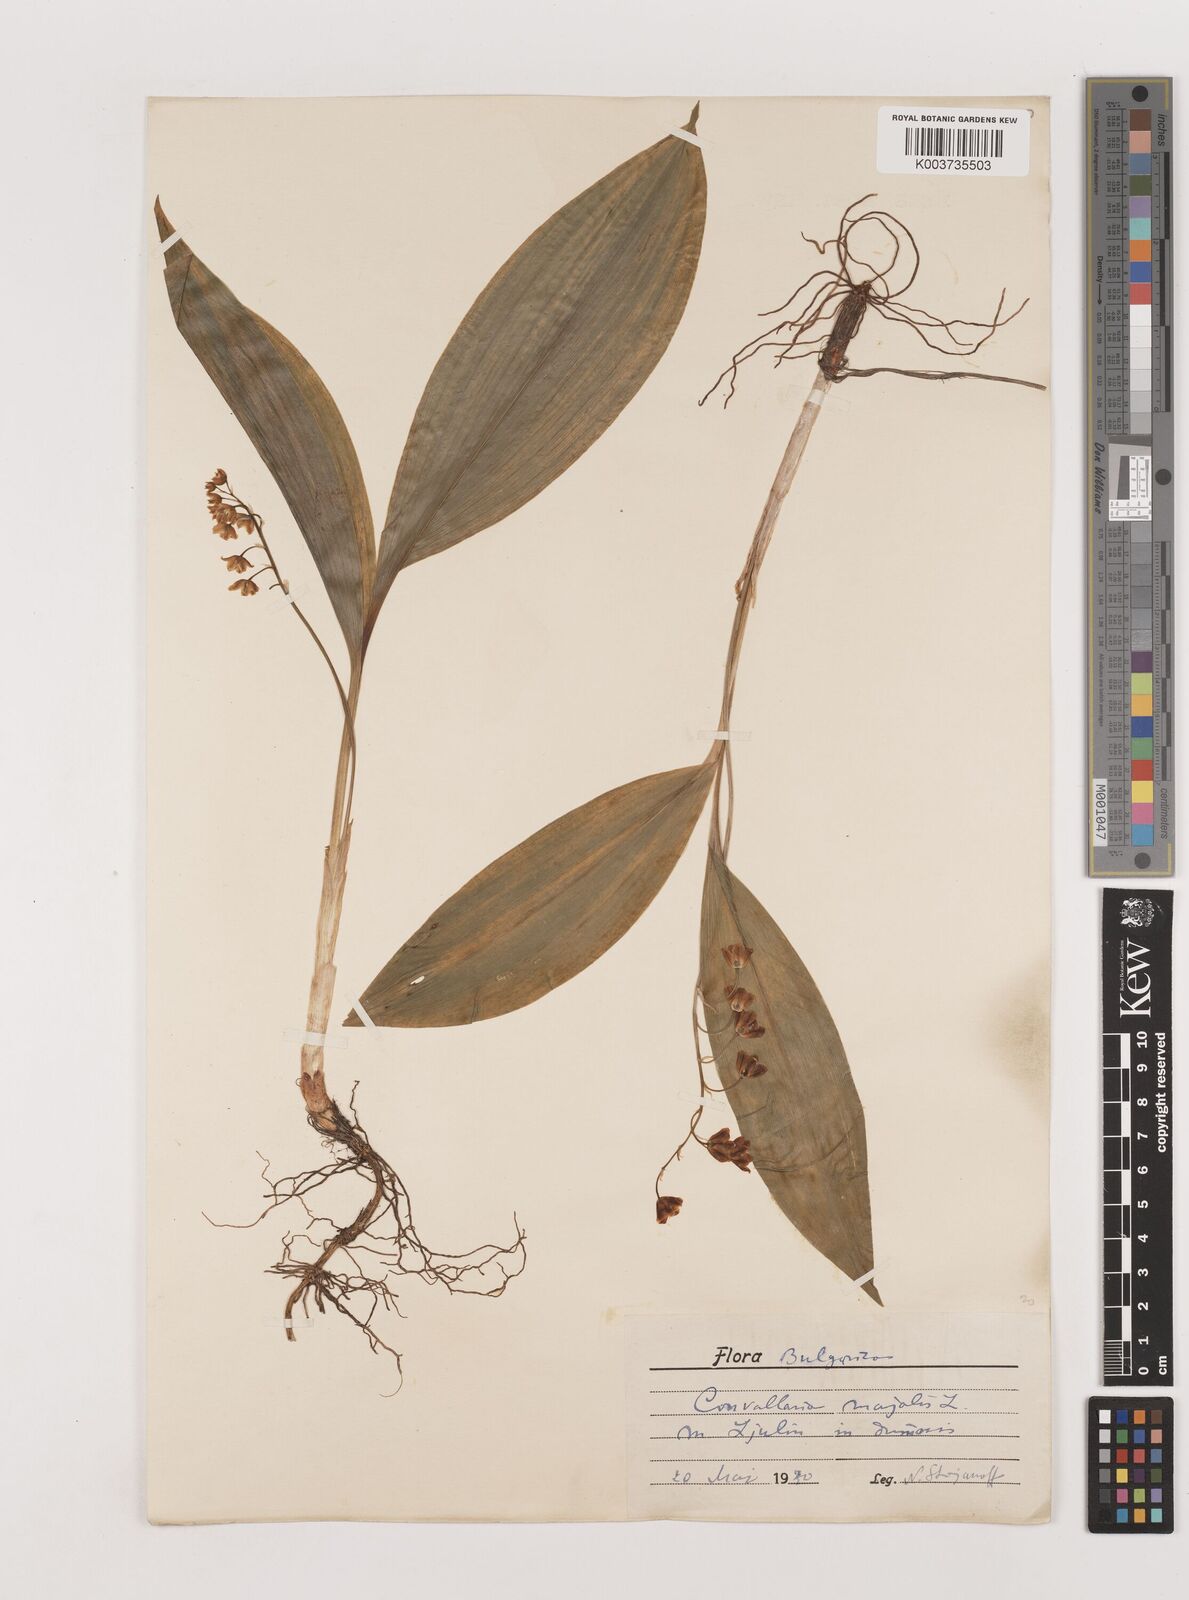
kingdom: Plantae
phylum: Tracheophyta
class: Liliopsida
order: Asparagales
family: Asparagaceae
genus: Convallaria
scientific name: Convallaria majalis
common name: Lily-of-the-valley
